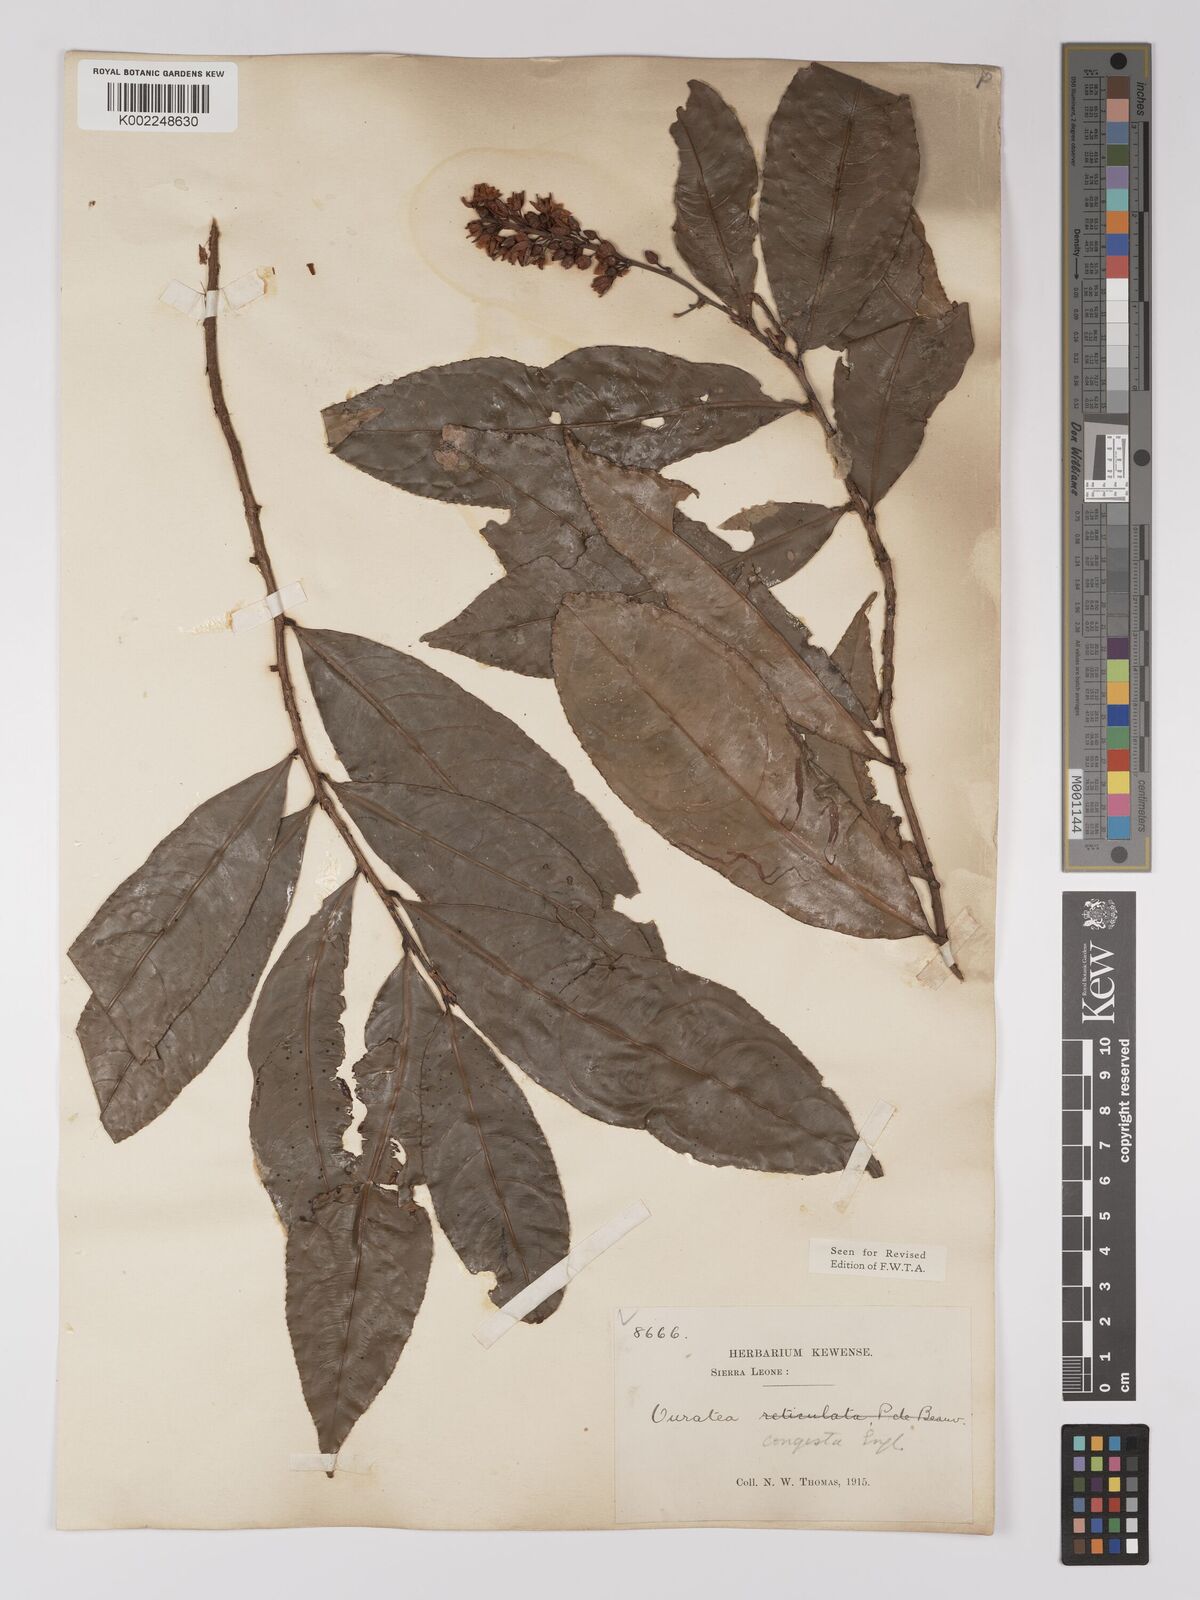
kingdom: Plantae
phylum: Tracheophyta
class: Magnoliopsida
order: Malpighiales
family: Ochnaceae
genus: Campylospermum
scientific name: Campylospermum congestum
